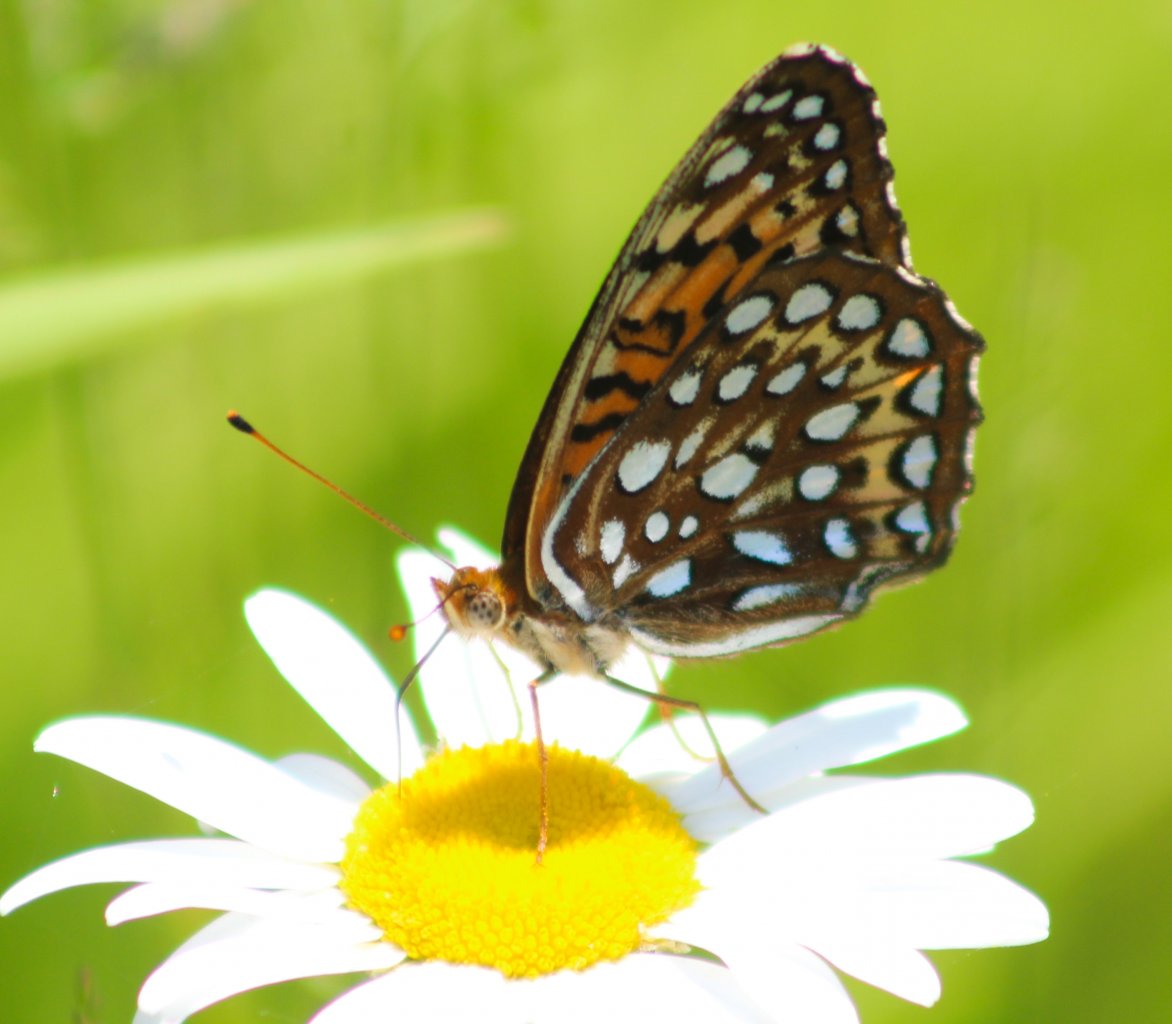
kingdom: Animalia
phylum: Arthropoda
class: Insecta
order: Lepidoptera
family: Nymphalidae
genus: Speyeria
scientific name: Speyeria atlantis
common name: Atlantis Fritillary
